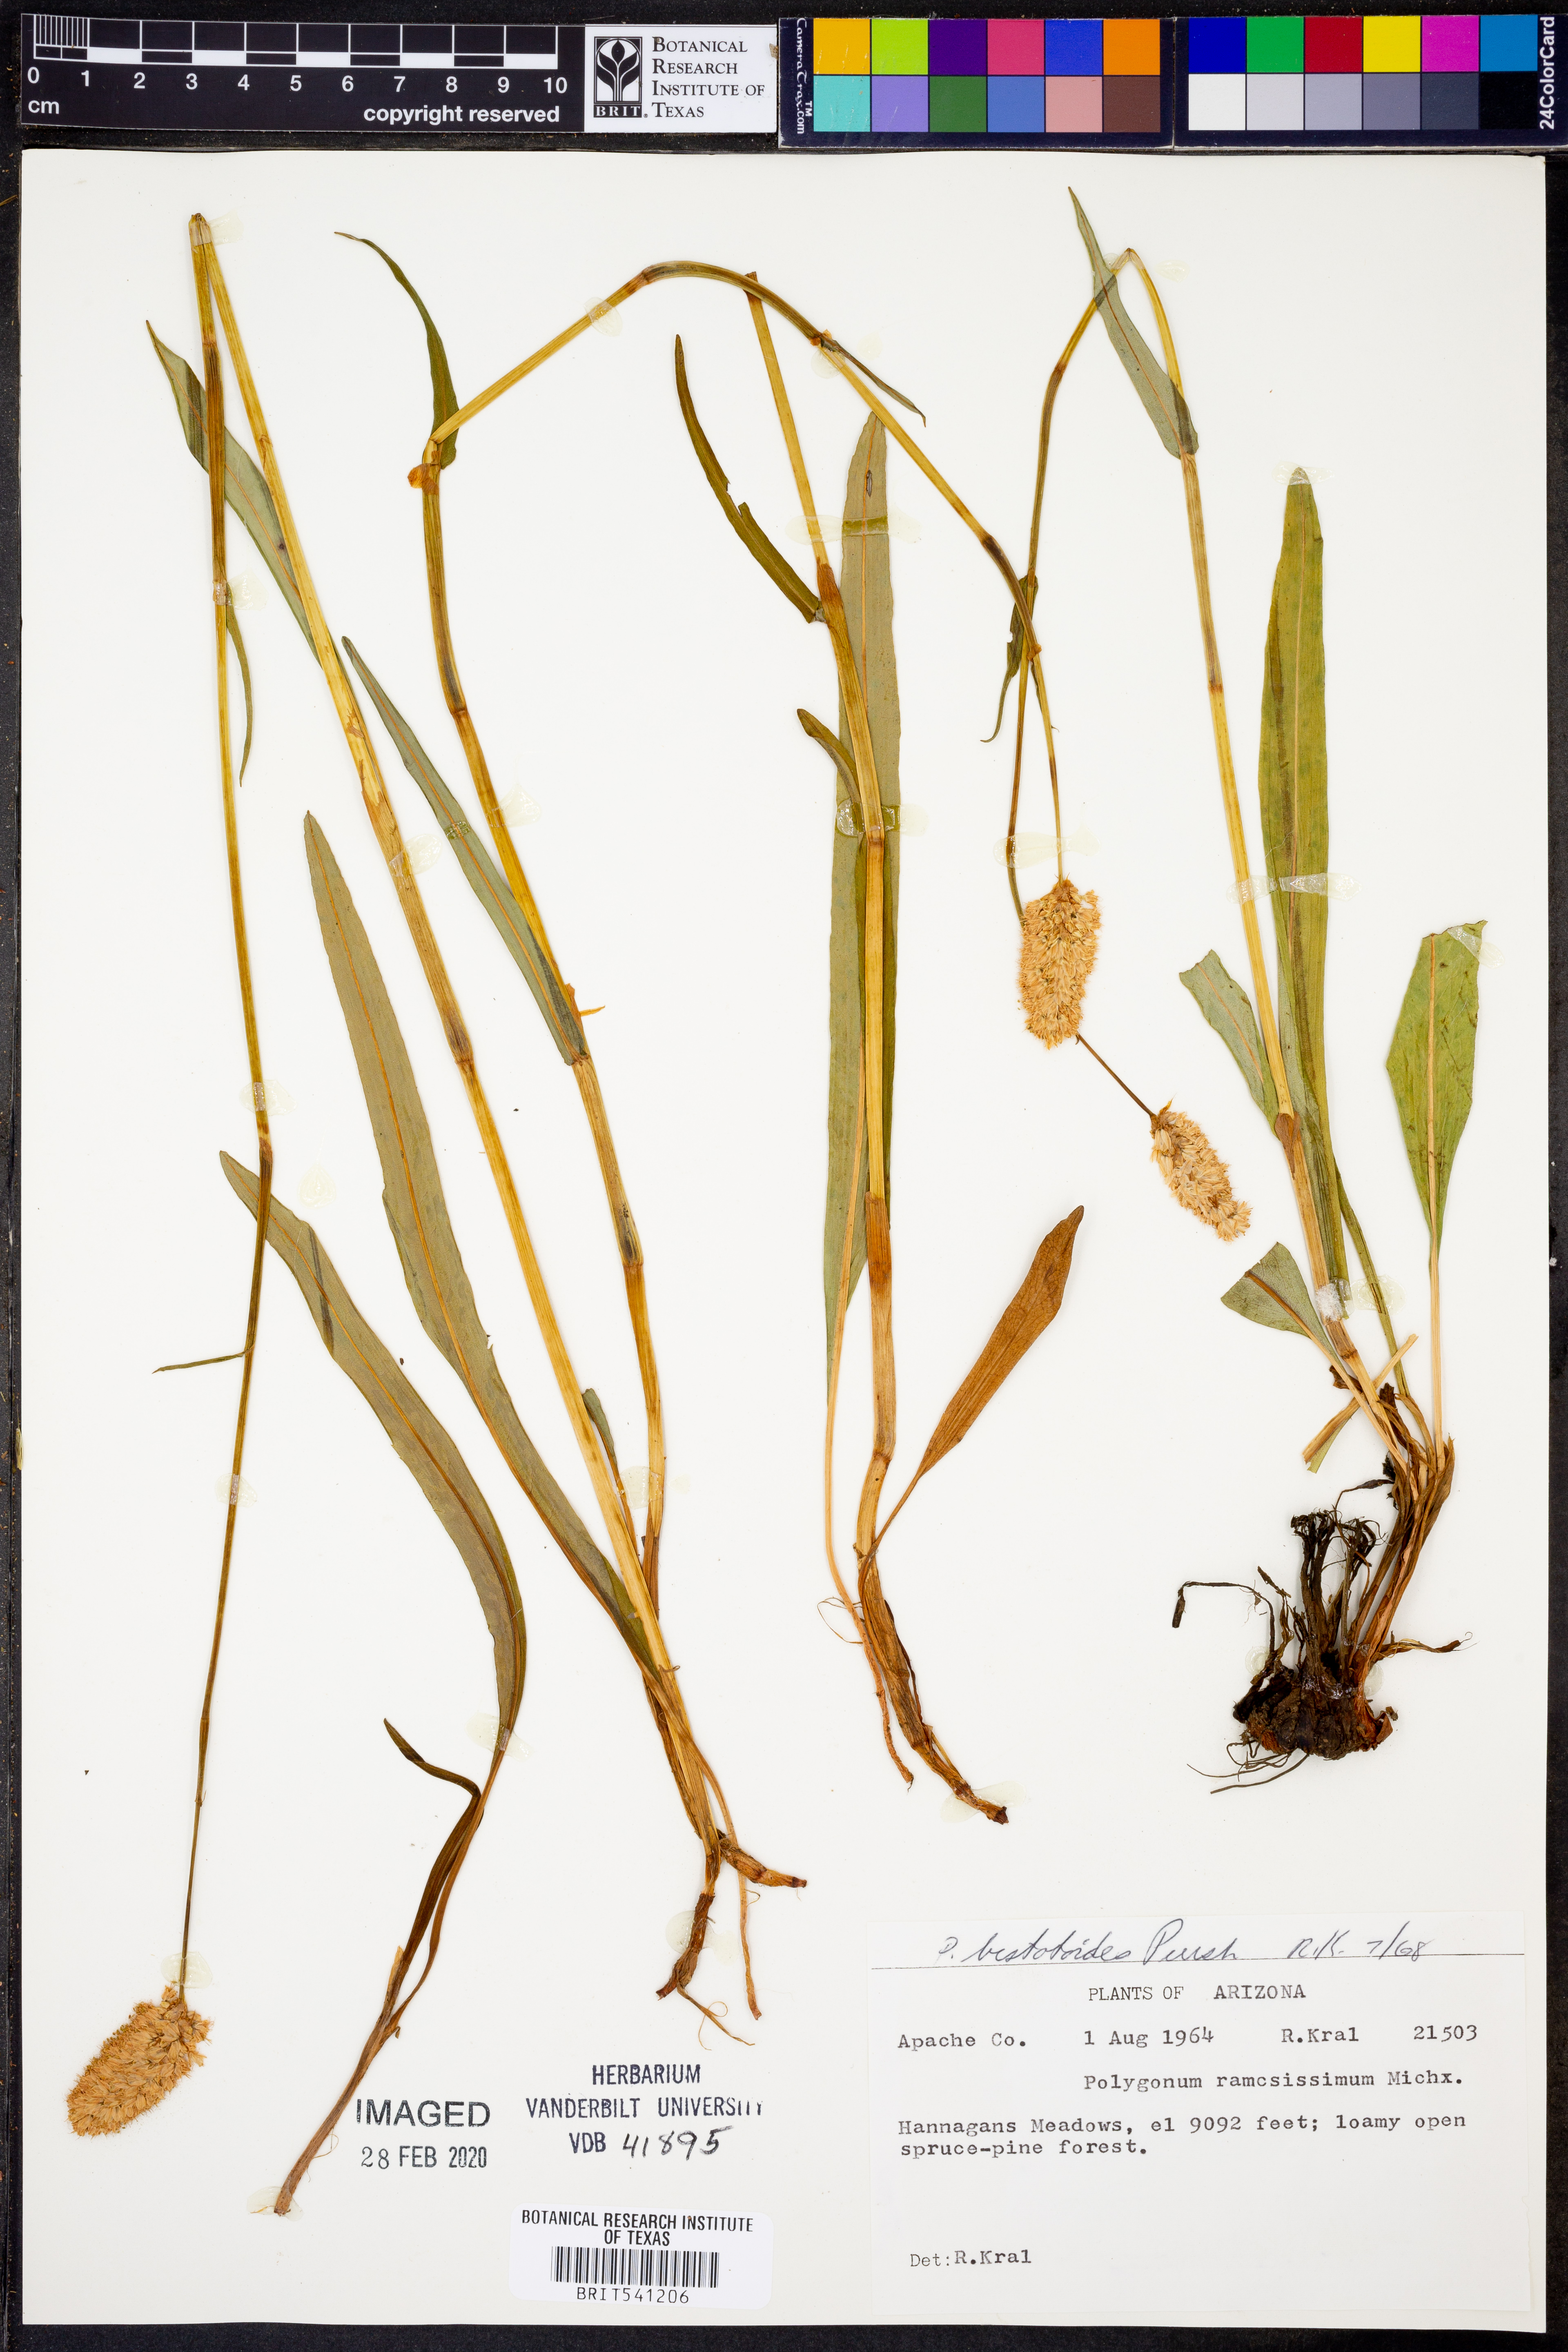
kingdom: Plantae
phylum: Tracheophyta
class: Magnoliopsida
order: Caryophyllales
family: Polygonaceae
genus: Bistorta
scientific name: Bistorta bistortoides
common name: American bistort
